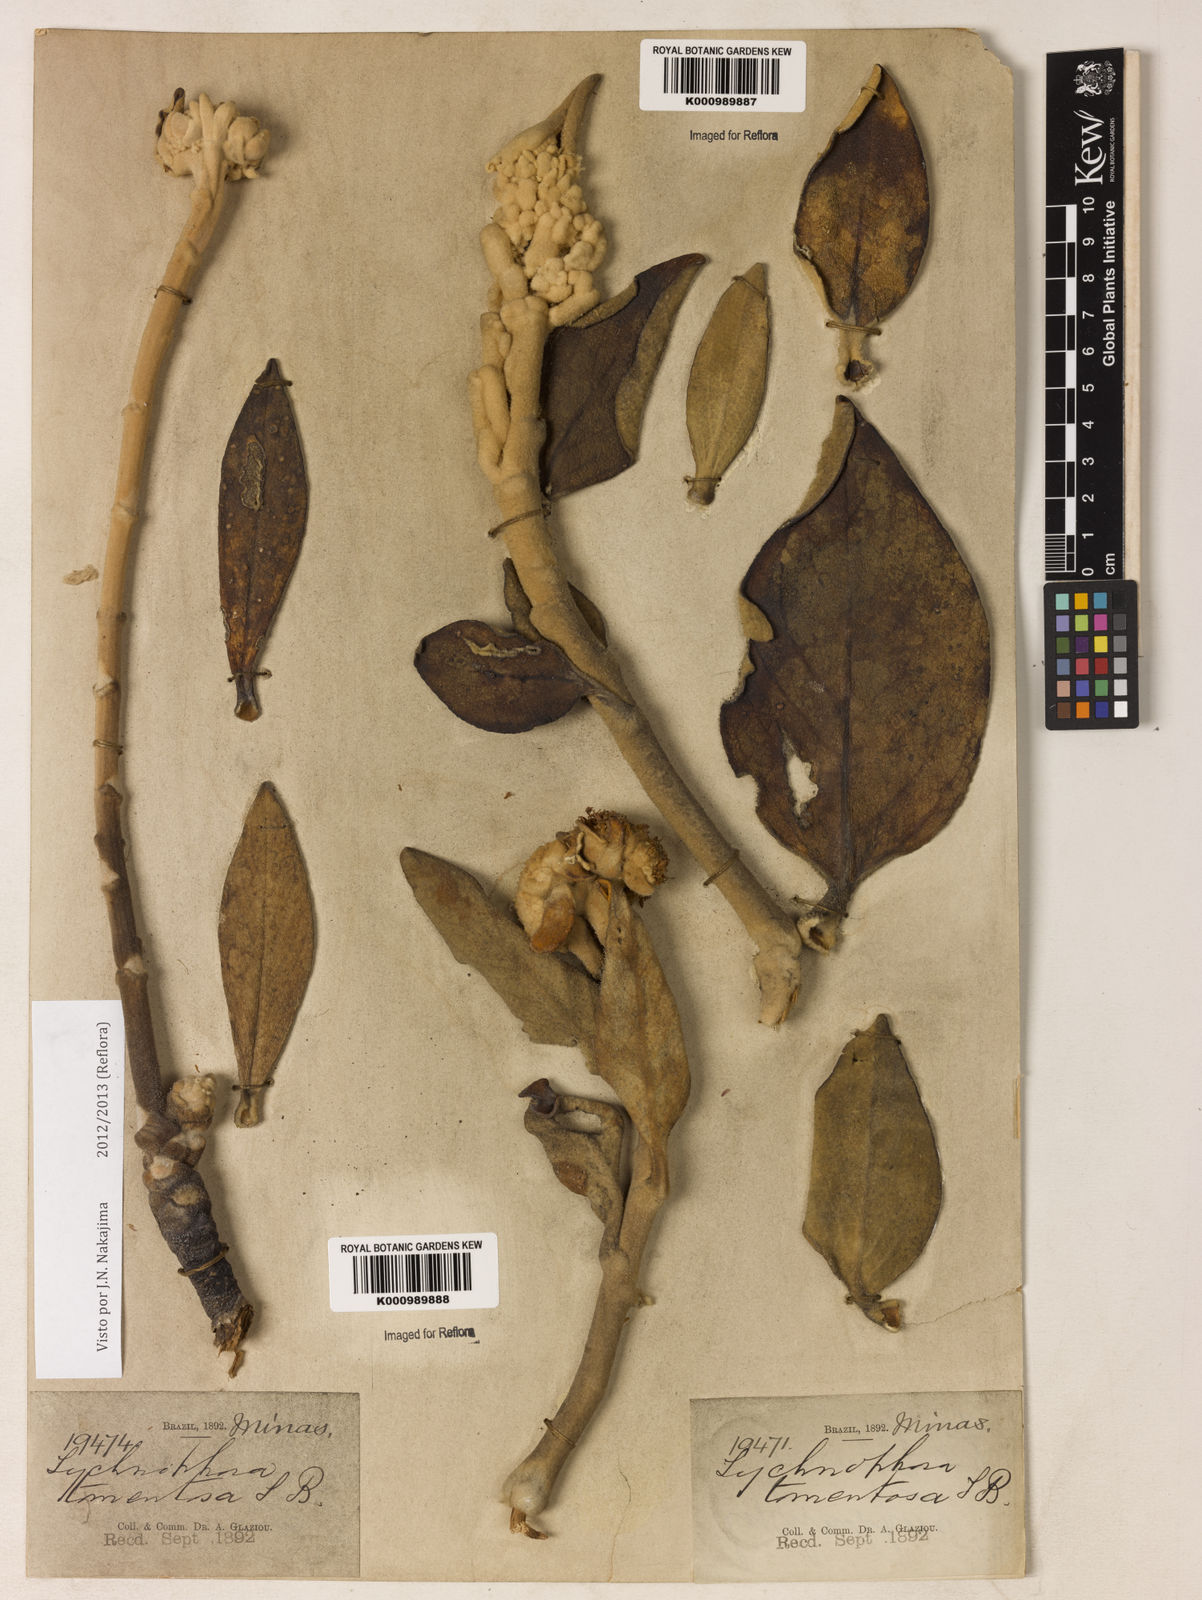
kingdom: Plantae
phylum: Tracheophyta
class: Magnoliopsida
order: Asterales
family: Asteraceae
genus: Lychnocephalus
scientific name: Lychnocephalus tomentosus
